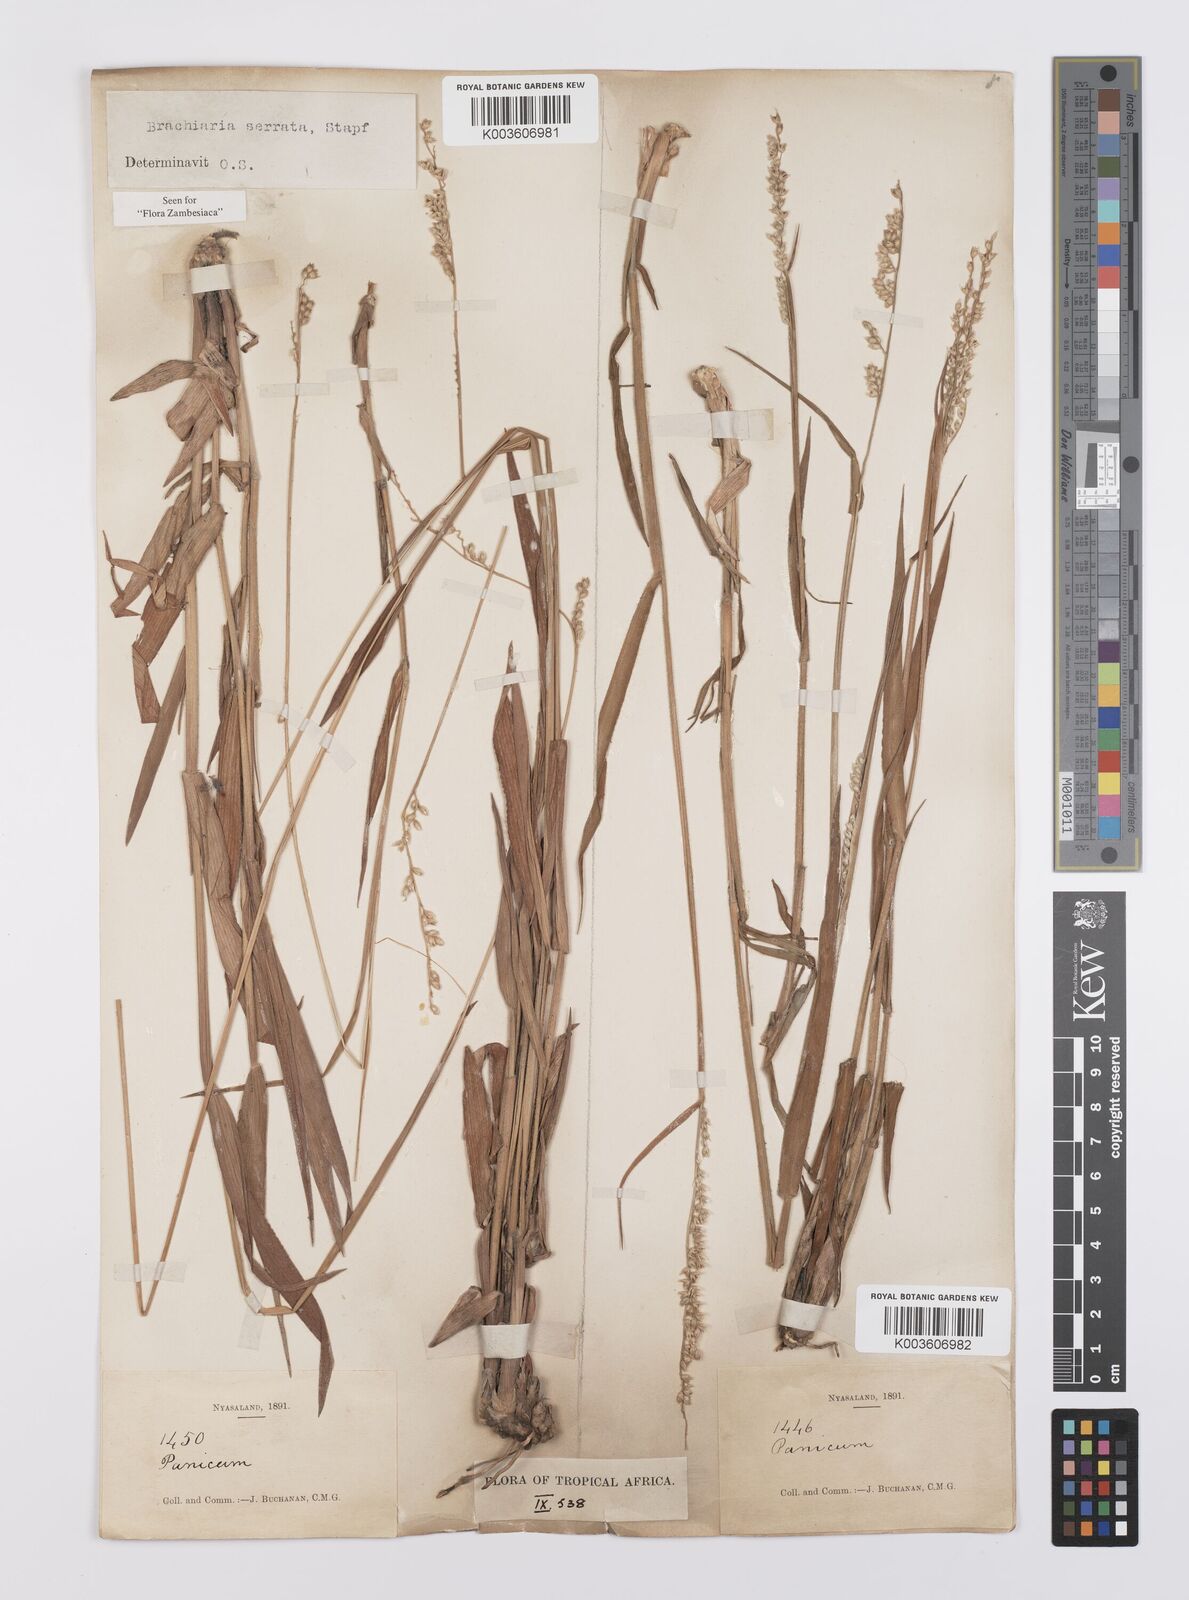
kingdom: Plantae
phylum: Tracheophyta
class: Liliopsida
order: Poales
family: Poaceae
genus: Urochloa
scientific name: Urochloa serrata
